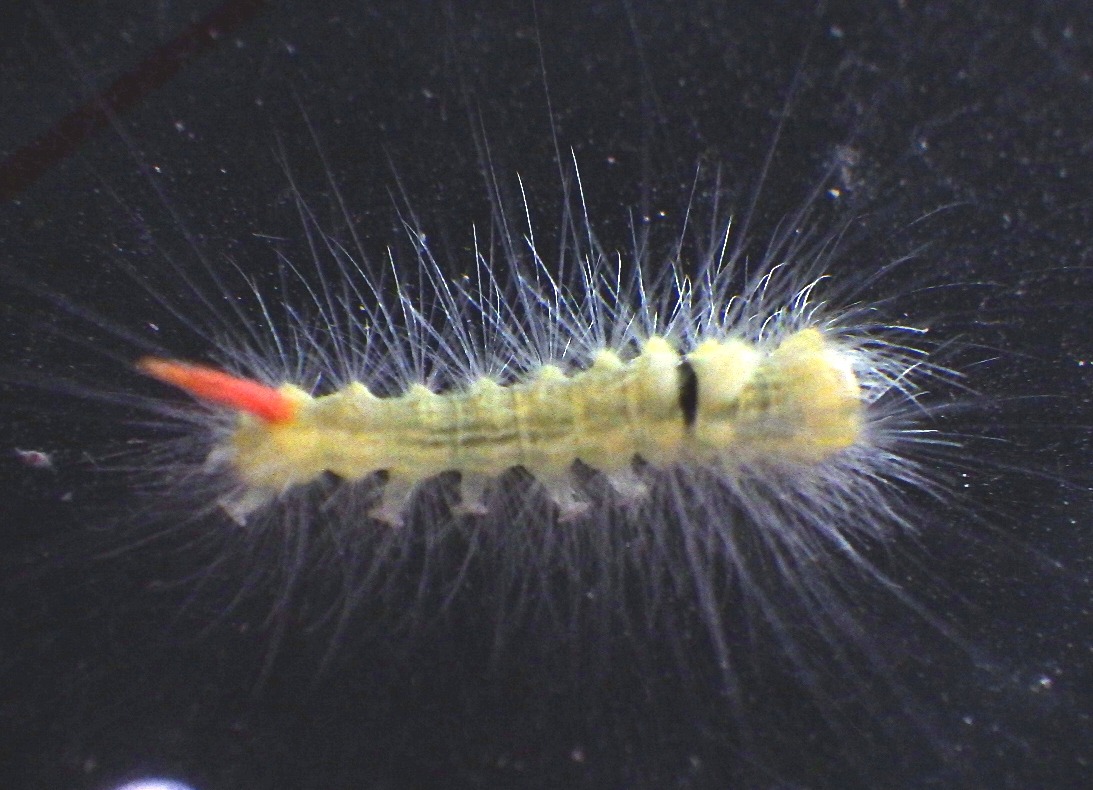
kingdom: Animalia
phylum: Arthropoda
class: Insecta
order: Lepidoptera
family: Erebidae
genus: Calliteara
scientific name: Calliteara pudibunda
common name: Bøgenonne
